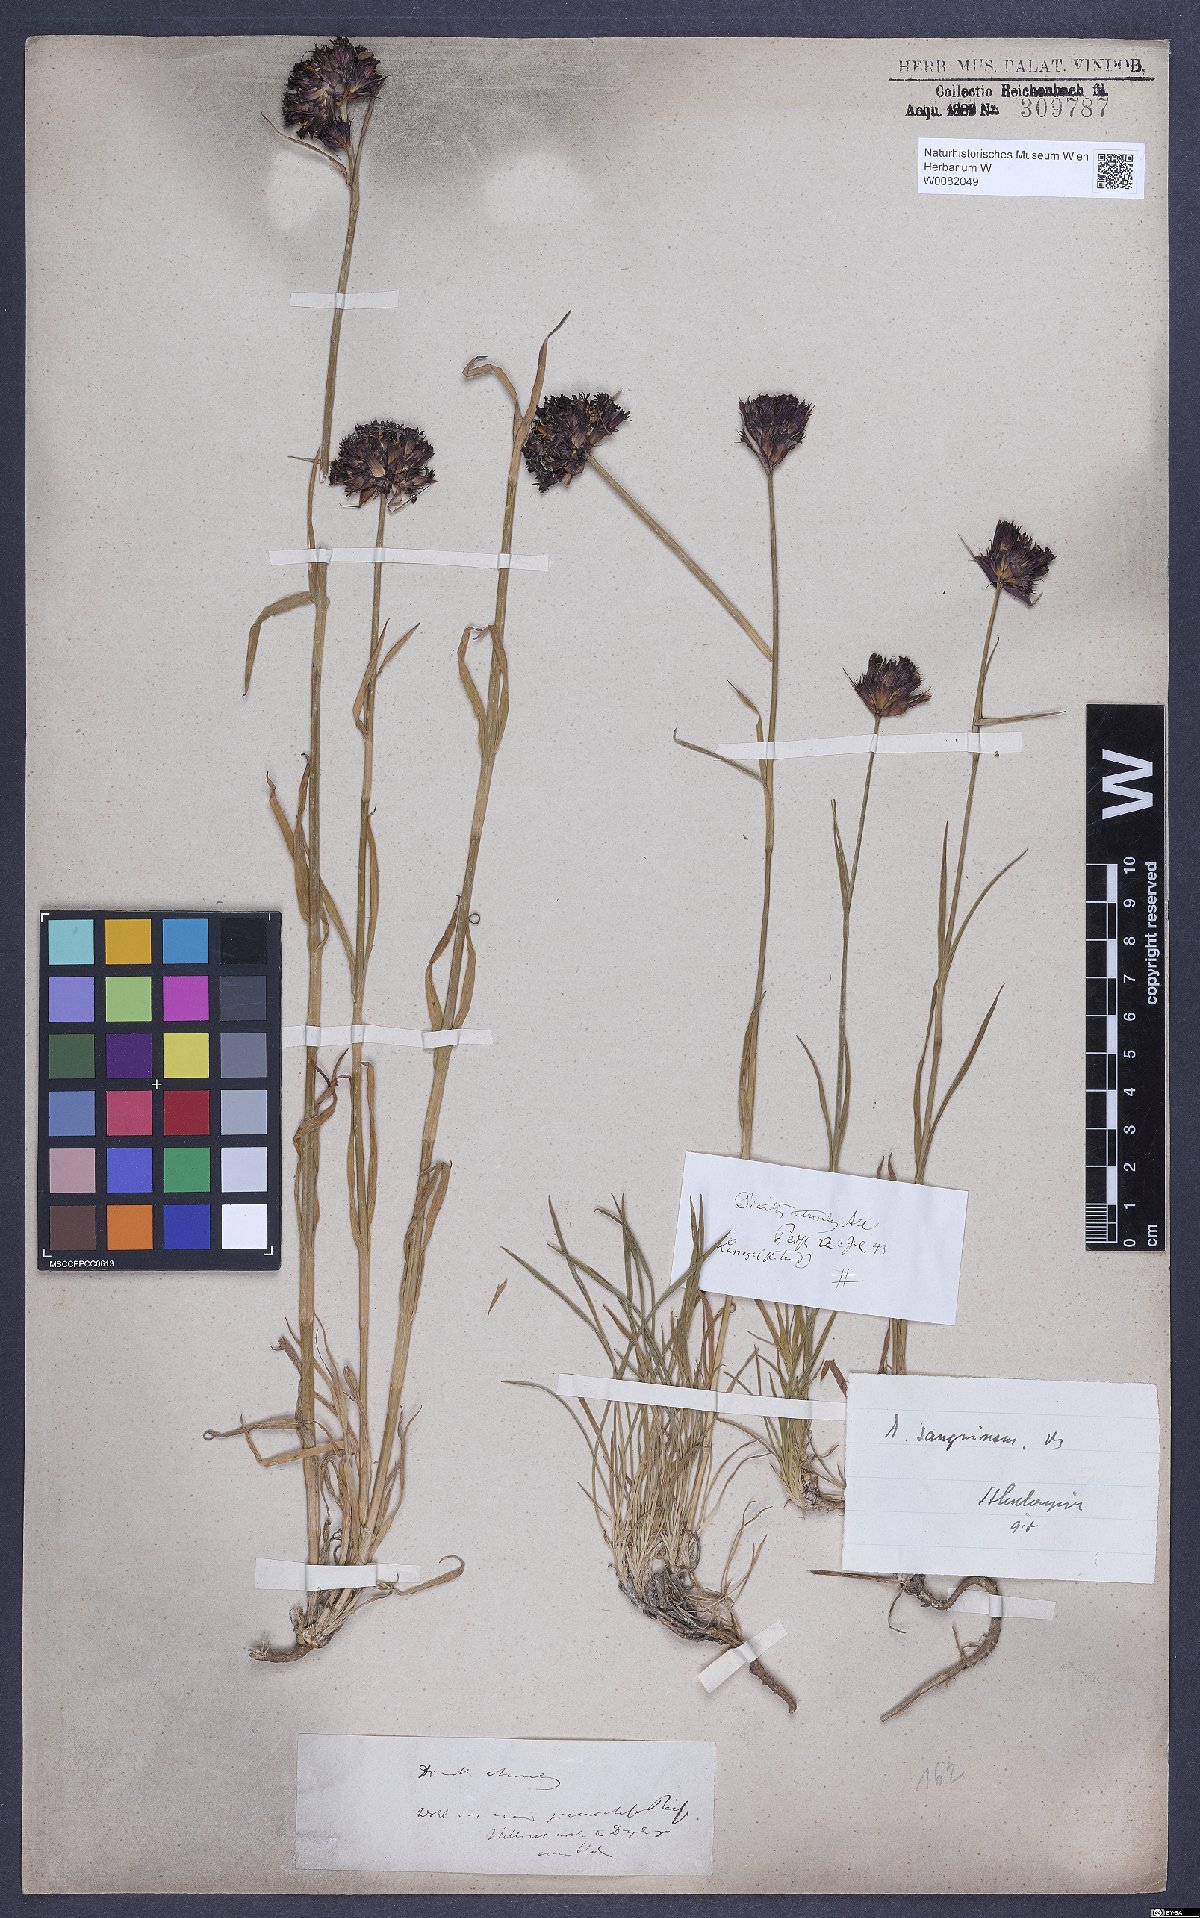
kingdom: Plantae
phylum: Tracheophyta
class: Magnoliopsida
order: Caryophyllales
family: Caryophyllaceae
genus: Dianthus
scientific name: Dianthus carthusianorum
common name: Carthusian pink
